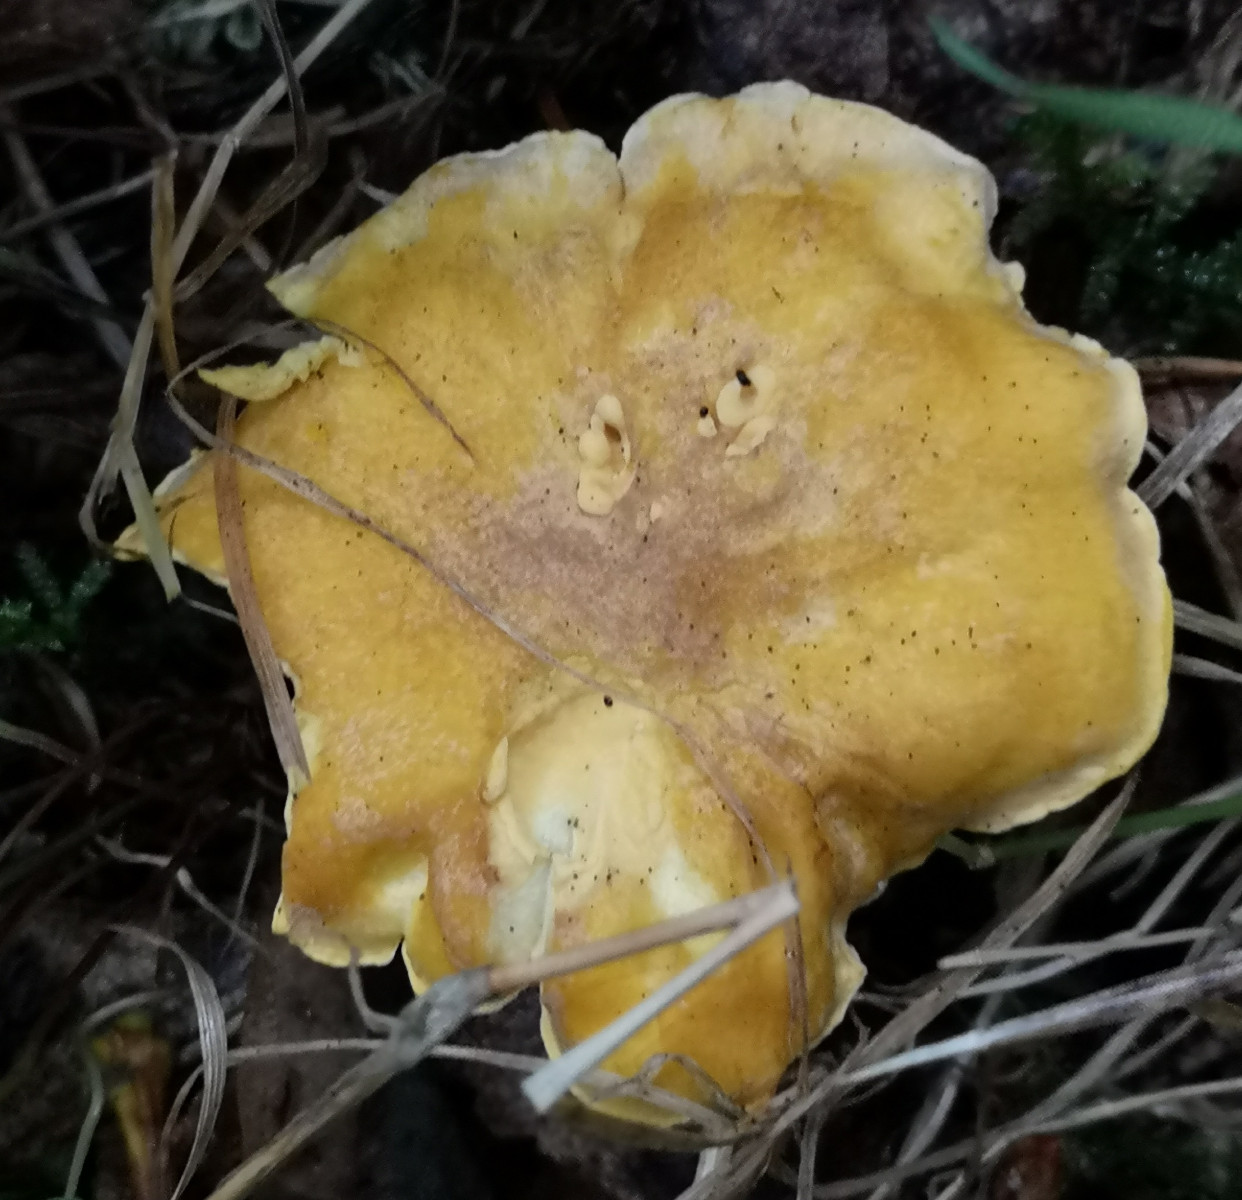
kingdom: Fungi
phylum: Basidiomycota
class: Agaricomycetes
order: Cantharellales
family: Hydnaceae
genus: Cantharellus
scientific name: Cantharellus amethysteus
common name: ametyst-kantarel
